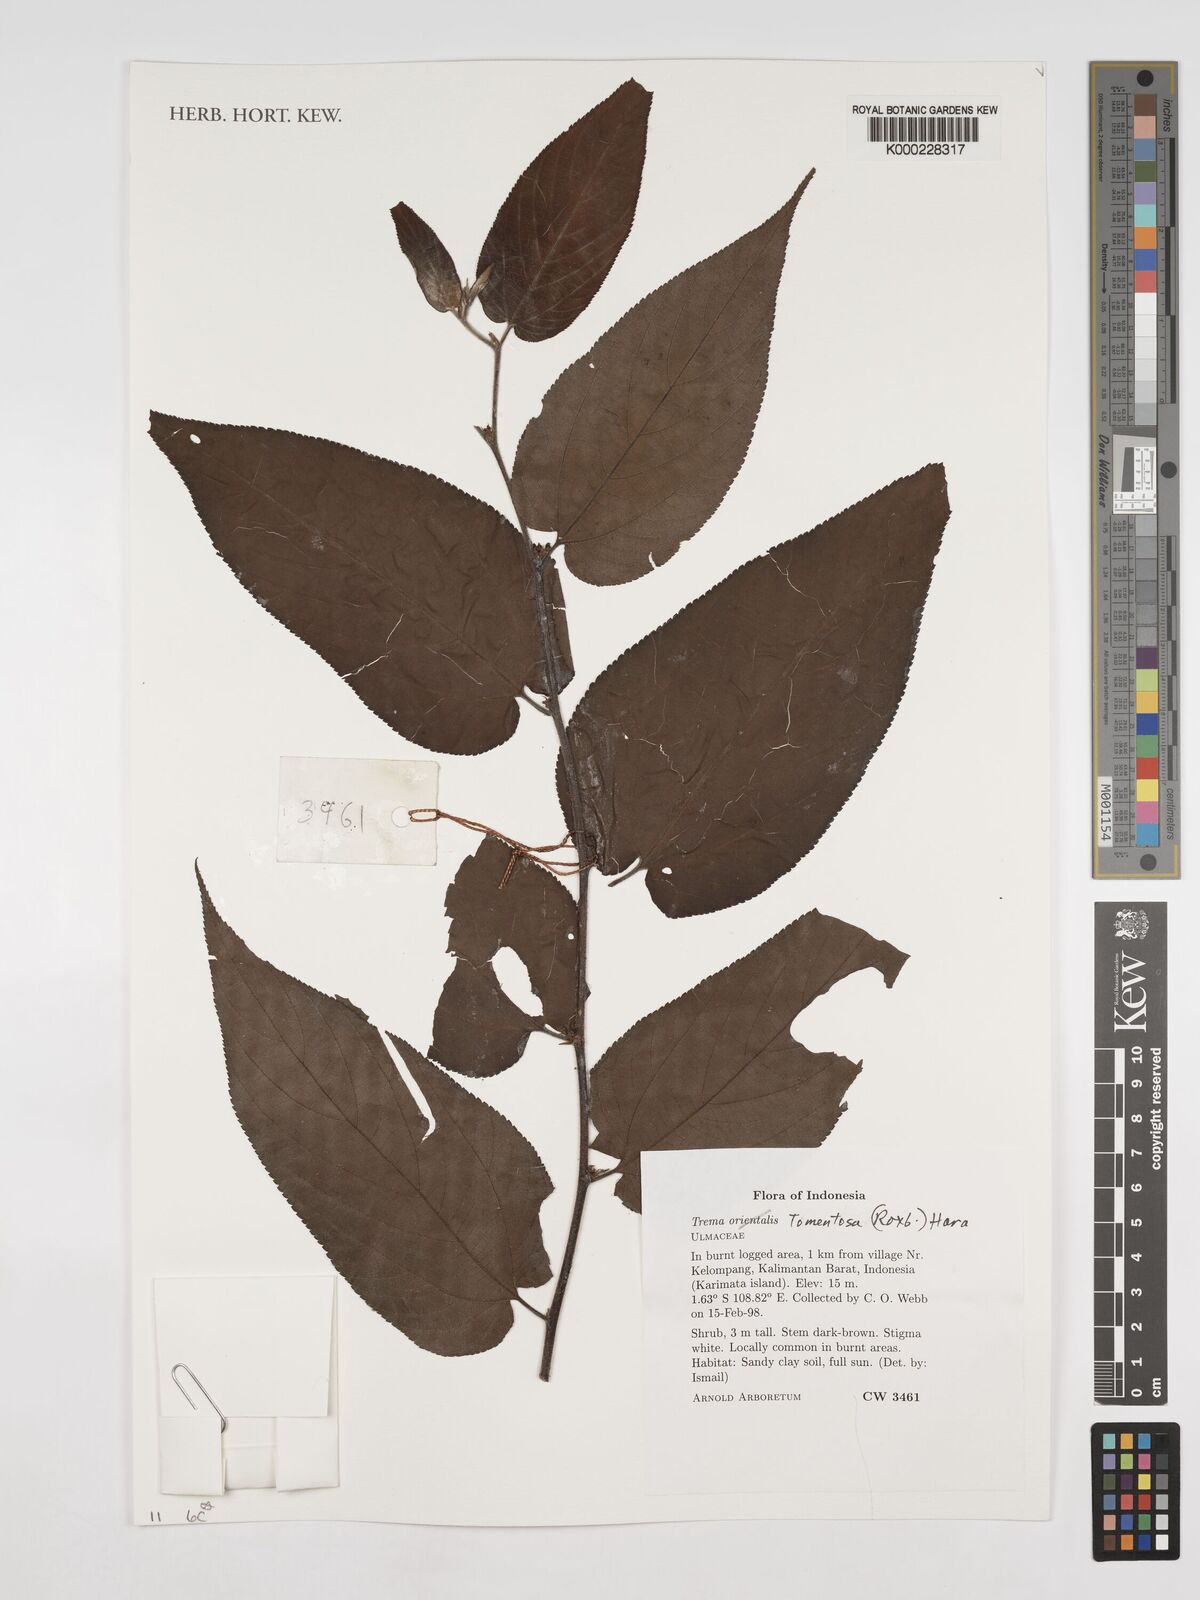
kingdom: Plantae
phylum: Tracheophyta
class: Magnoliopsida
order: Rosales
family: Cannabaceae
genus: Trema
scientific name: Trema tomentosum
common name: Peach-leaf-poisonbush
